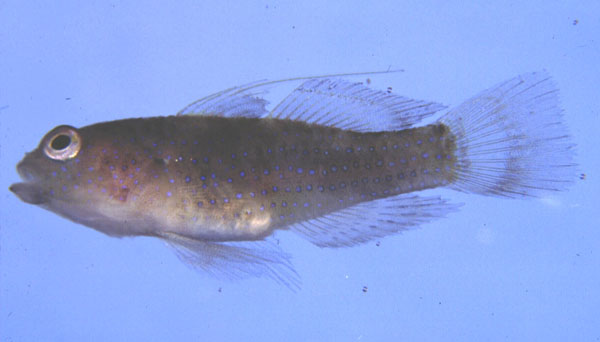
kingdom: Animalia
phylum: Chordata
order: Perciformes
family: Gobiidae
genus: Asterropteryx
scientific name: Asterropteryx ensifera
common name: Blue-speckled rubble goby
